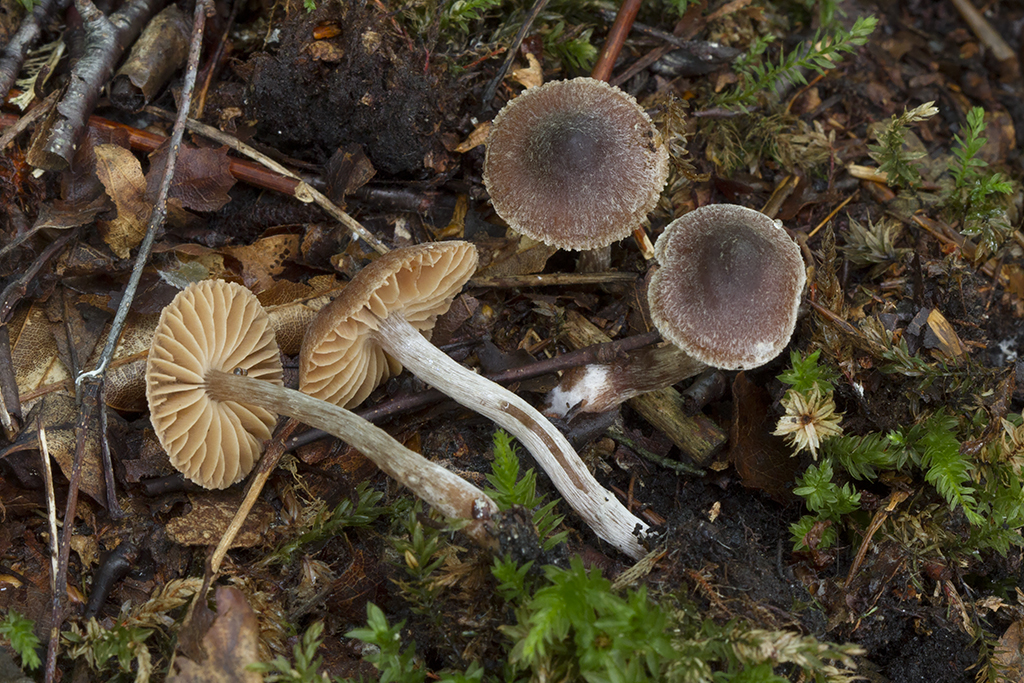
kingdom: Fungi
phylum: Basidiomycota
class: Agaricomycetes
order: Agaricales
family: Cortinariaceae
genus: Cortinarius
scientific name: Cortinarius fragrantissimus
